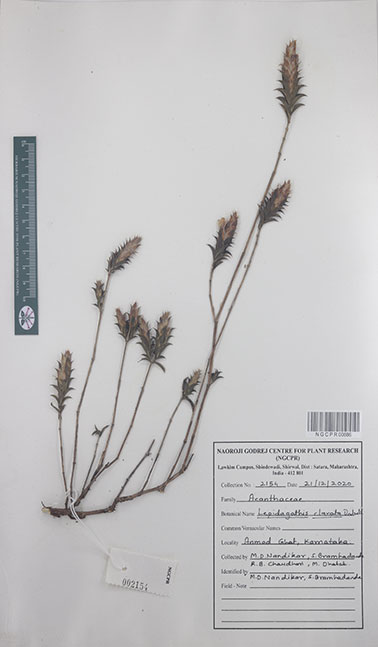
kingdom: Plantae
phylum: Tracheophyta
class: Magnoliopsida
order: Lamiales
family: Acanthaceae
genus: Lepidagathis
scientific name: Lepidagathis clavata
